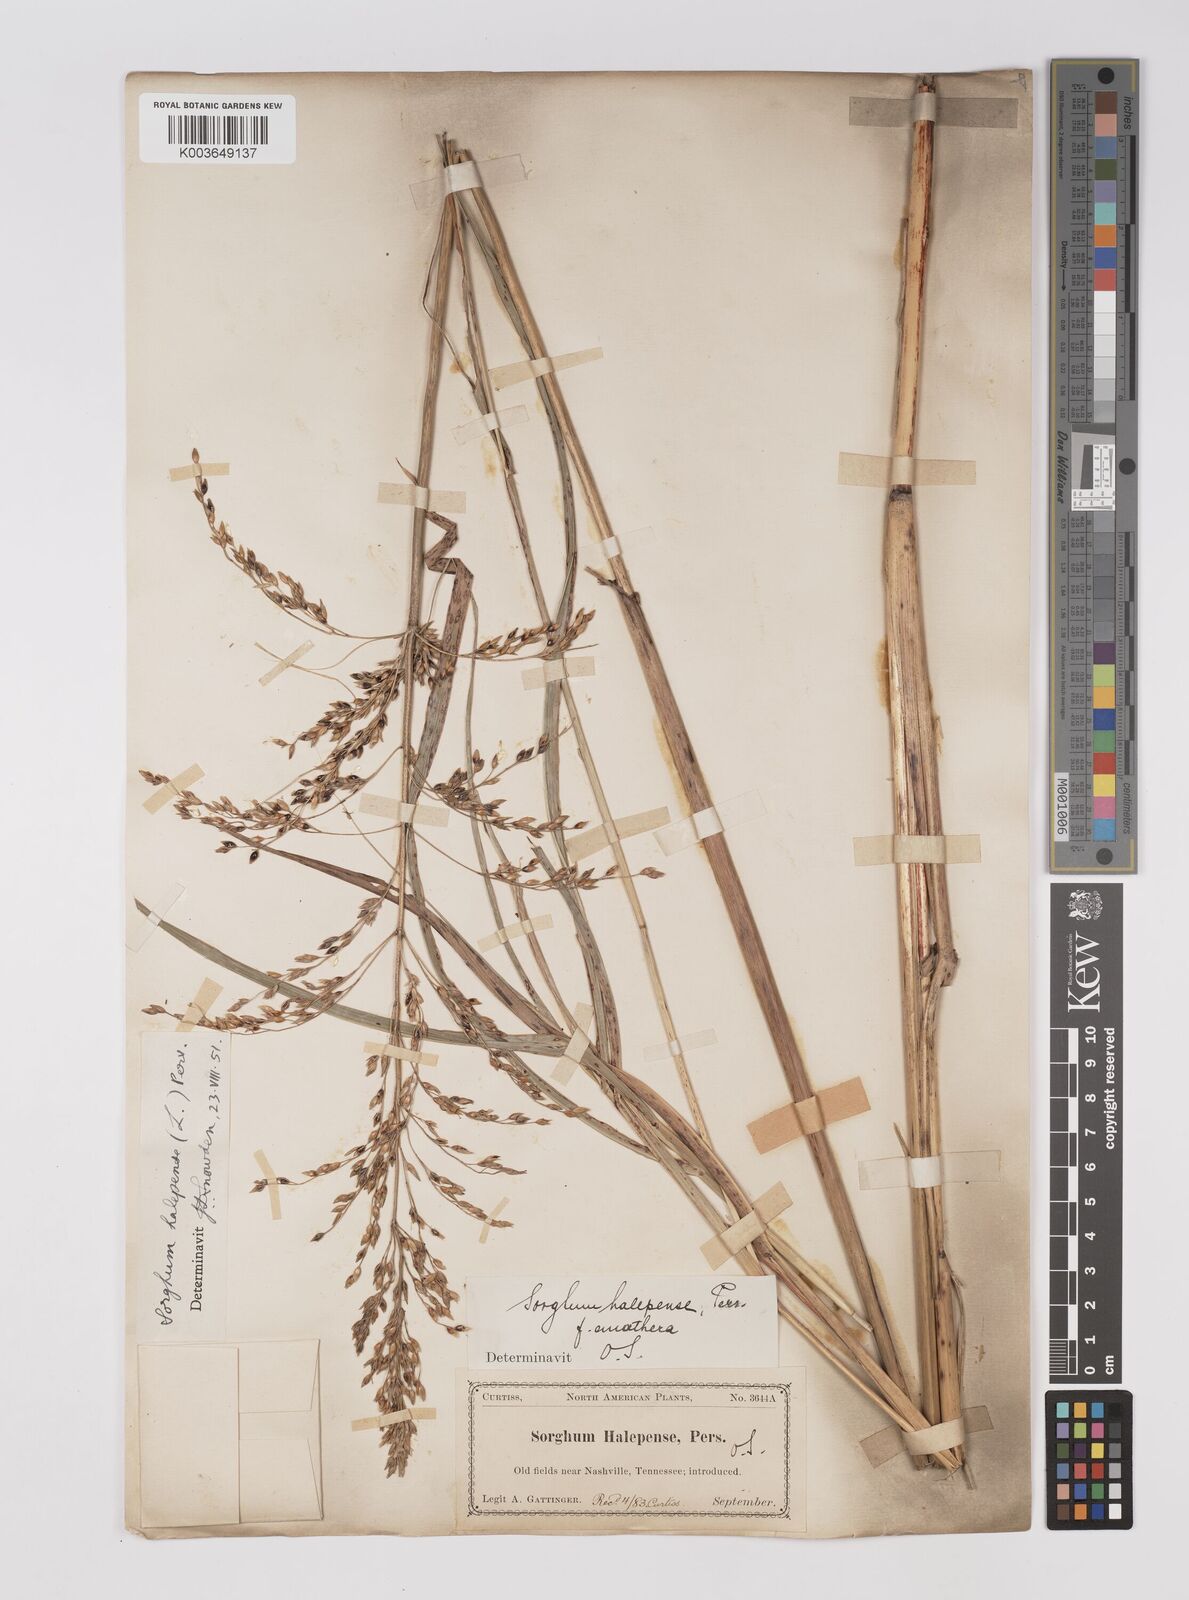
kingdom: Plantae
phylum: Tracheophyta
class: Liliopsida
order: Poales
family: Poaceae
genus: Sorghum
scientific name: Sorghum halepense
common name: Johnson-grass
